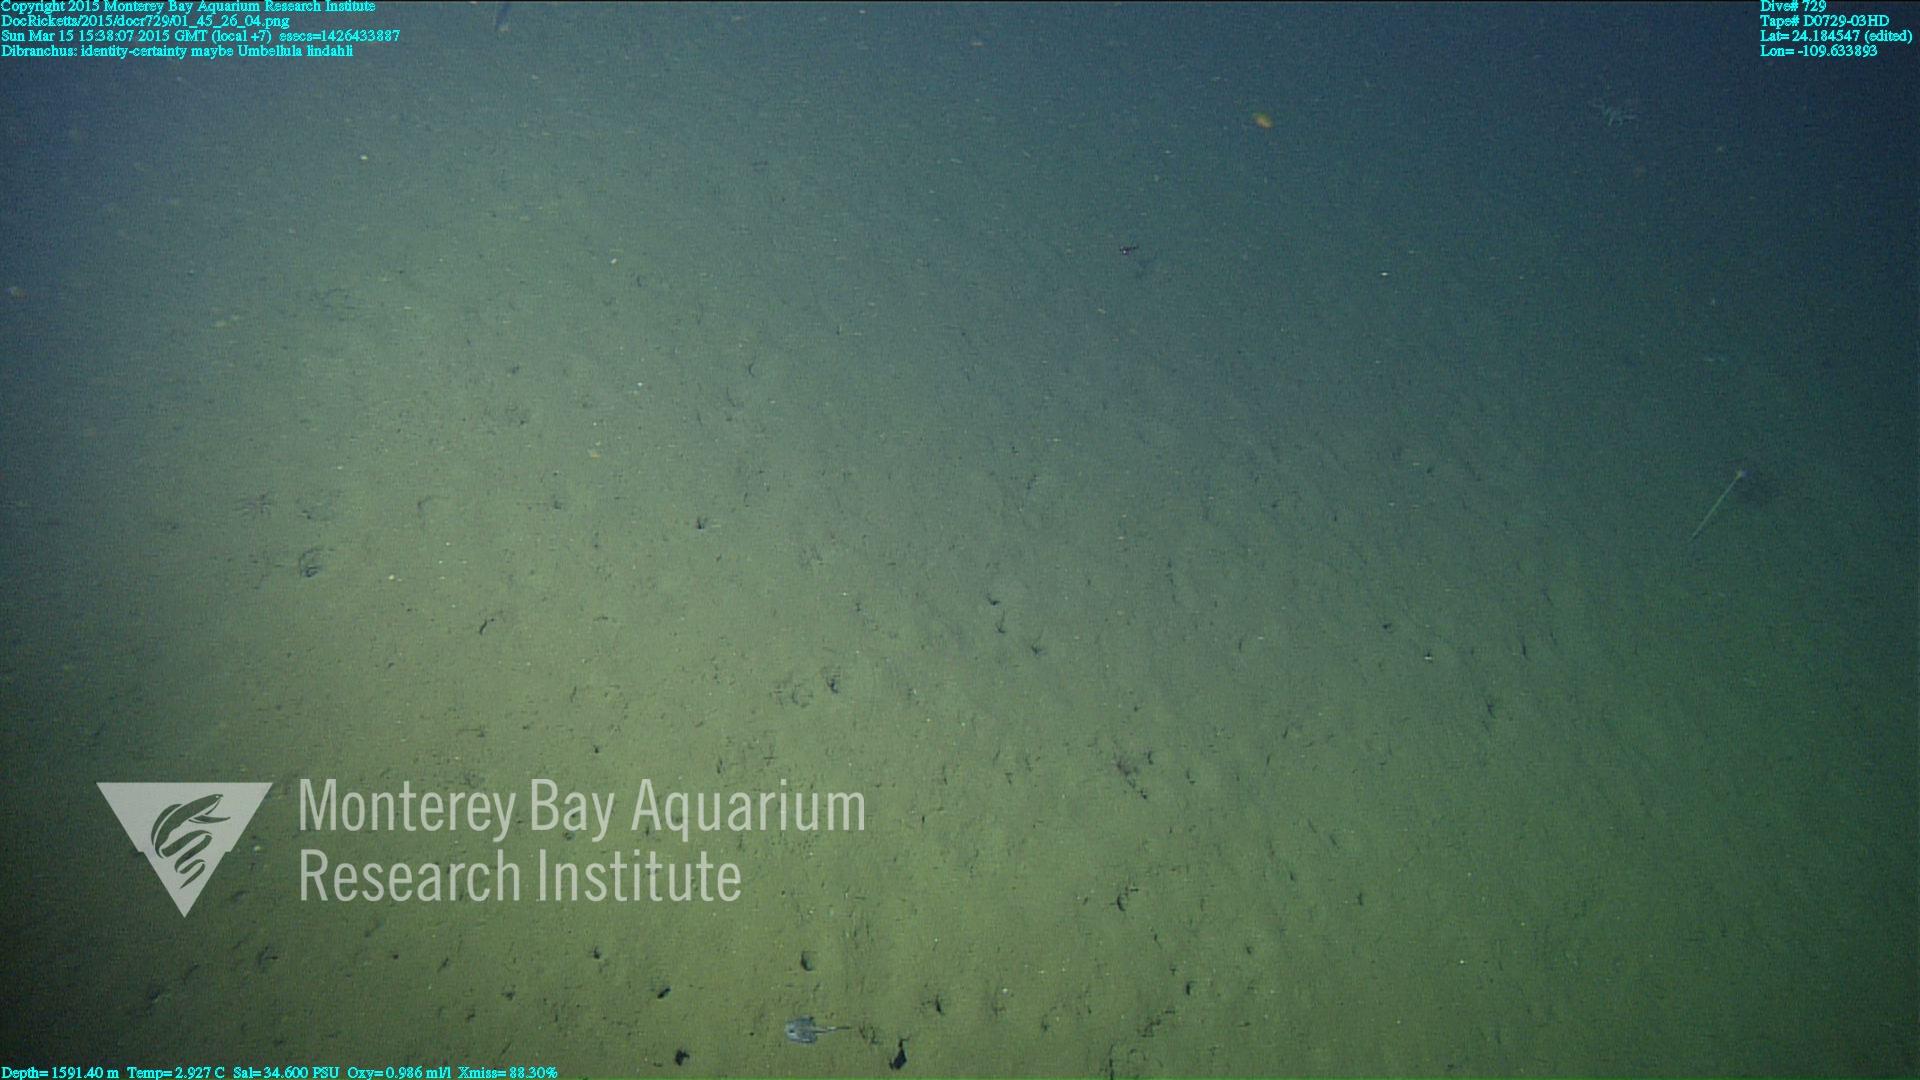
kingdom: Animalia
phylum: Cnidaria
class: Anthozoa
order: Scleralcyonacea
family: Umbellulidae
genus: Umbellula
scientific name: Umbellula lindahli
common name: Lindahl's droopy sea pen
